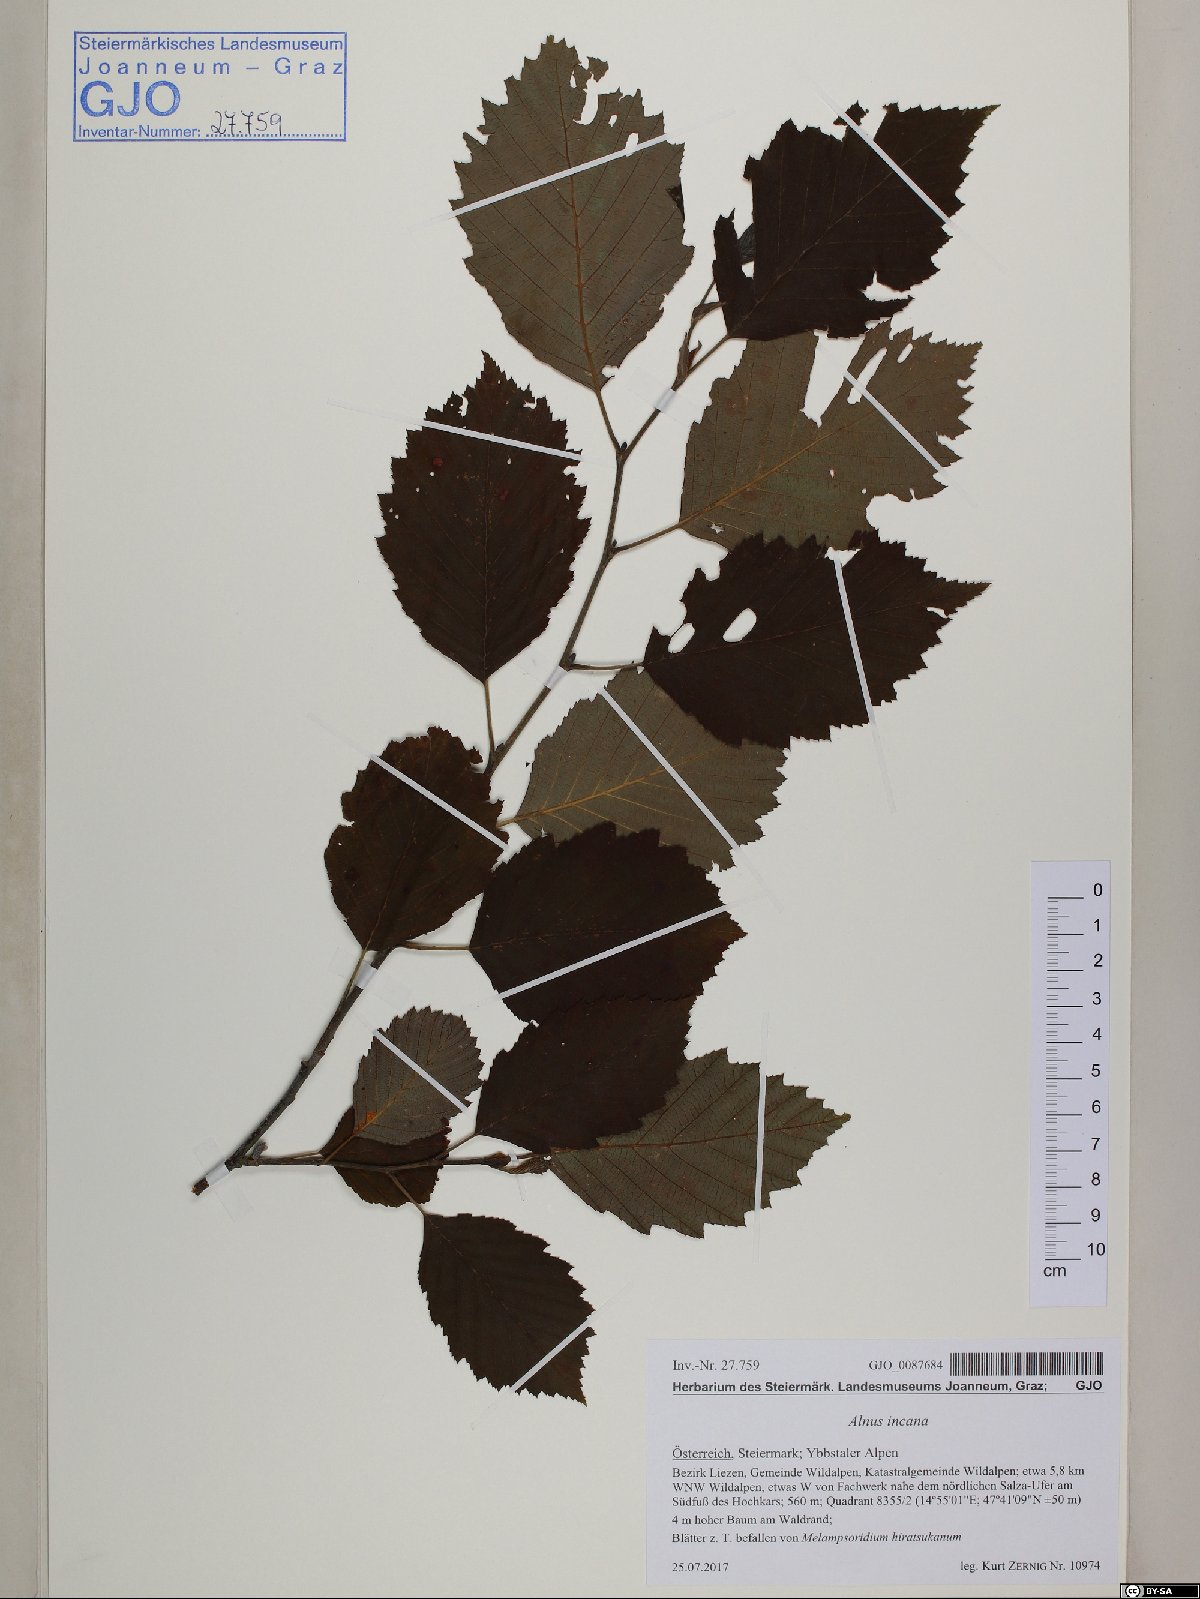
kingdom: Plantae
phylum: Tracheophyta
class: Magnoliopsida
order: Fagales
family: Betulaceae
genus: Alnus
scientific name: Alnus incana
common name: Grey alder
